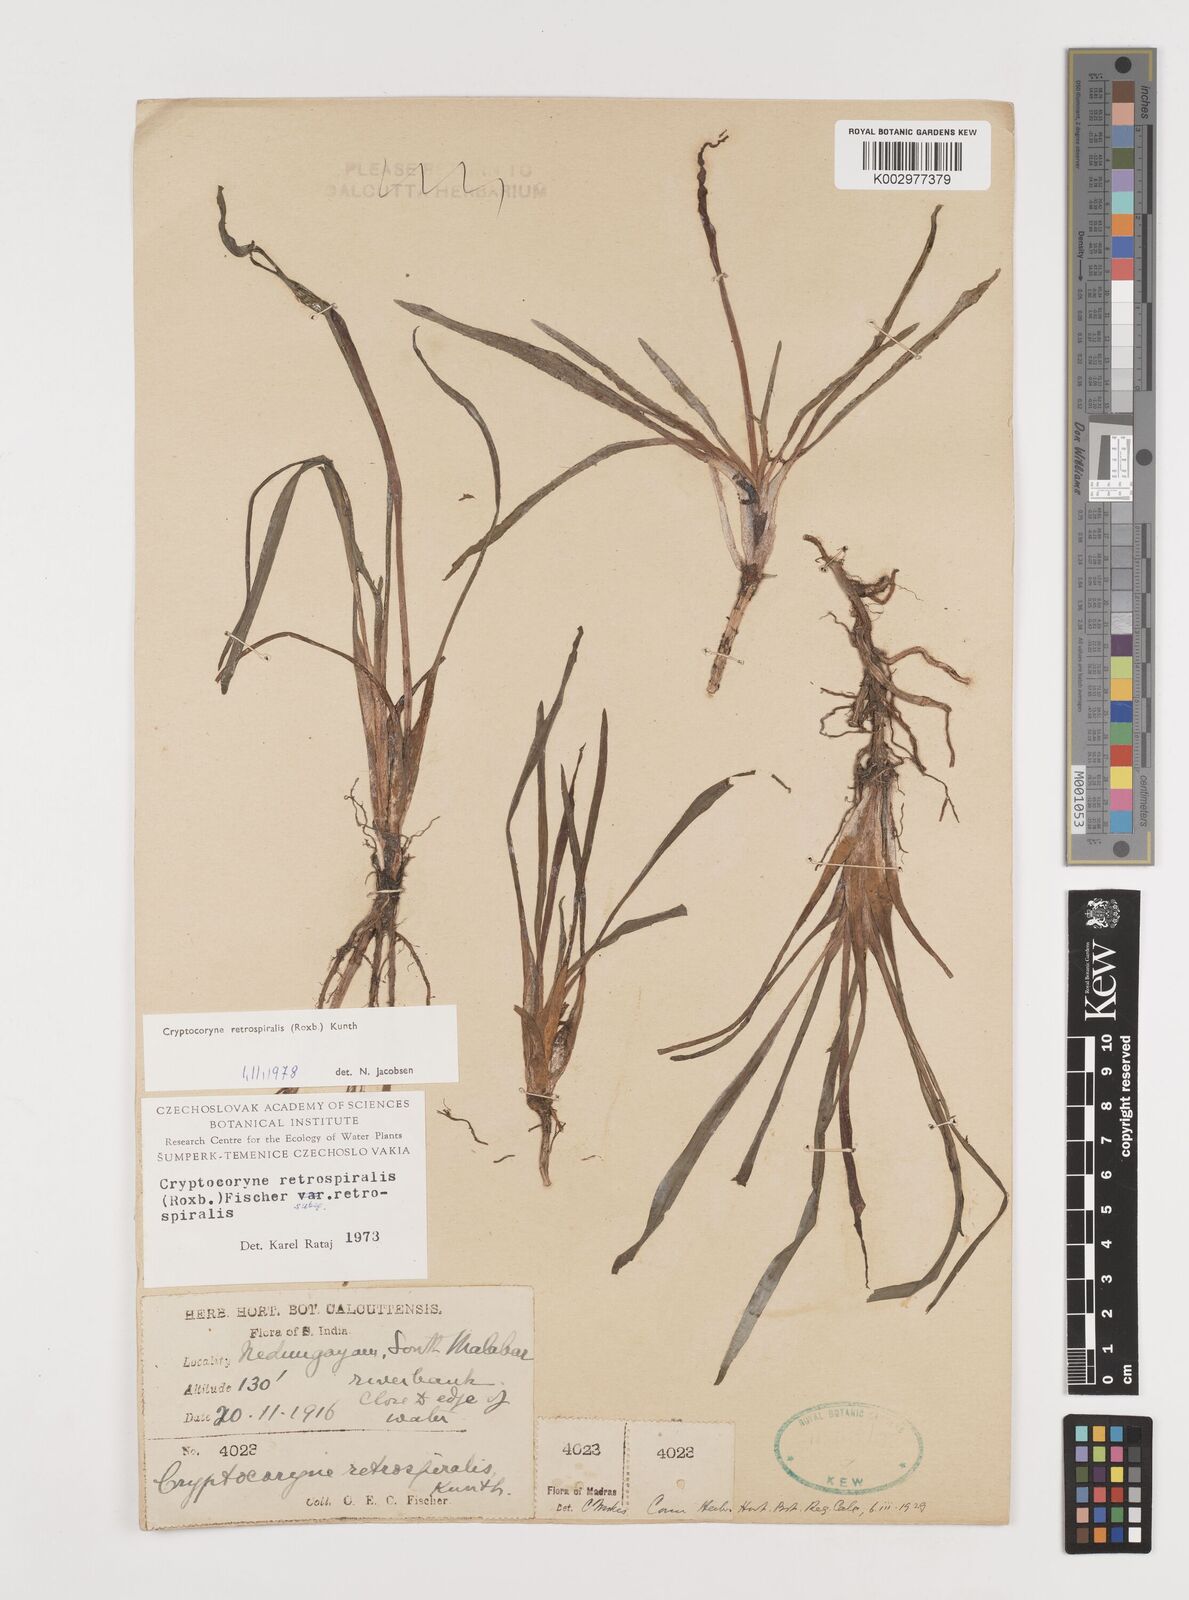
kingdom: Plantae
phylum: Tracheophyta
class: Liliopsida
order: Alismatales
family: Araceae
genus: Cryptocoryne
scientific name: Cryptocoryne retrospiralis
